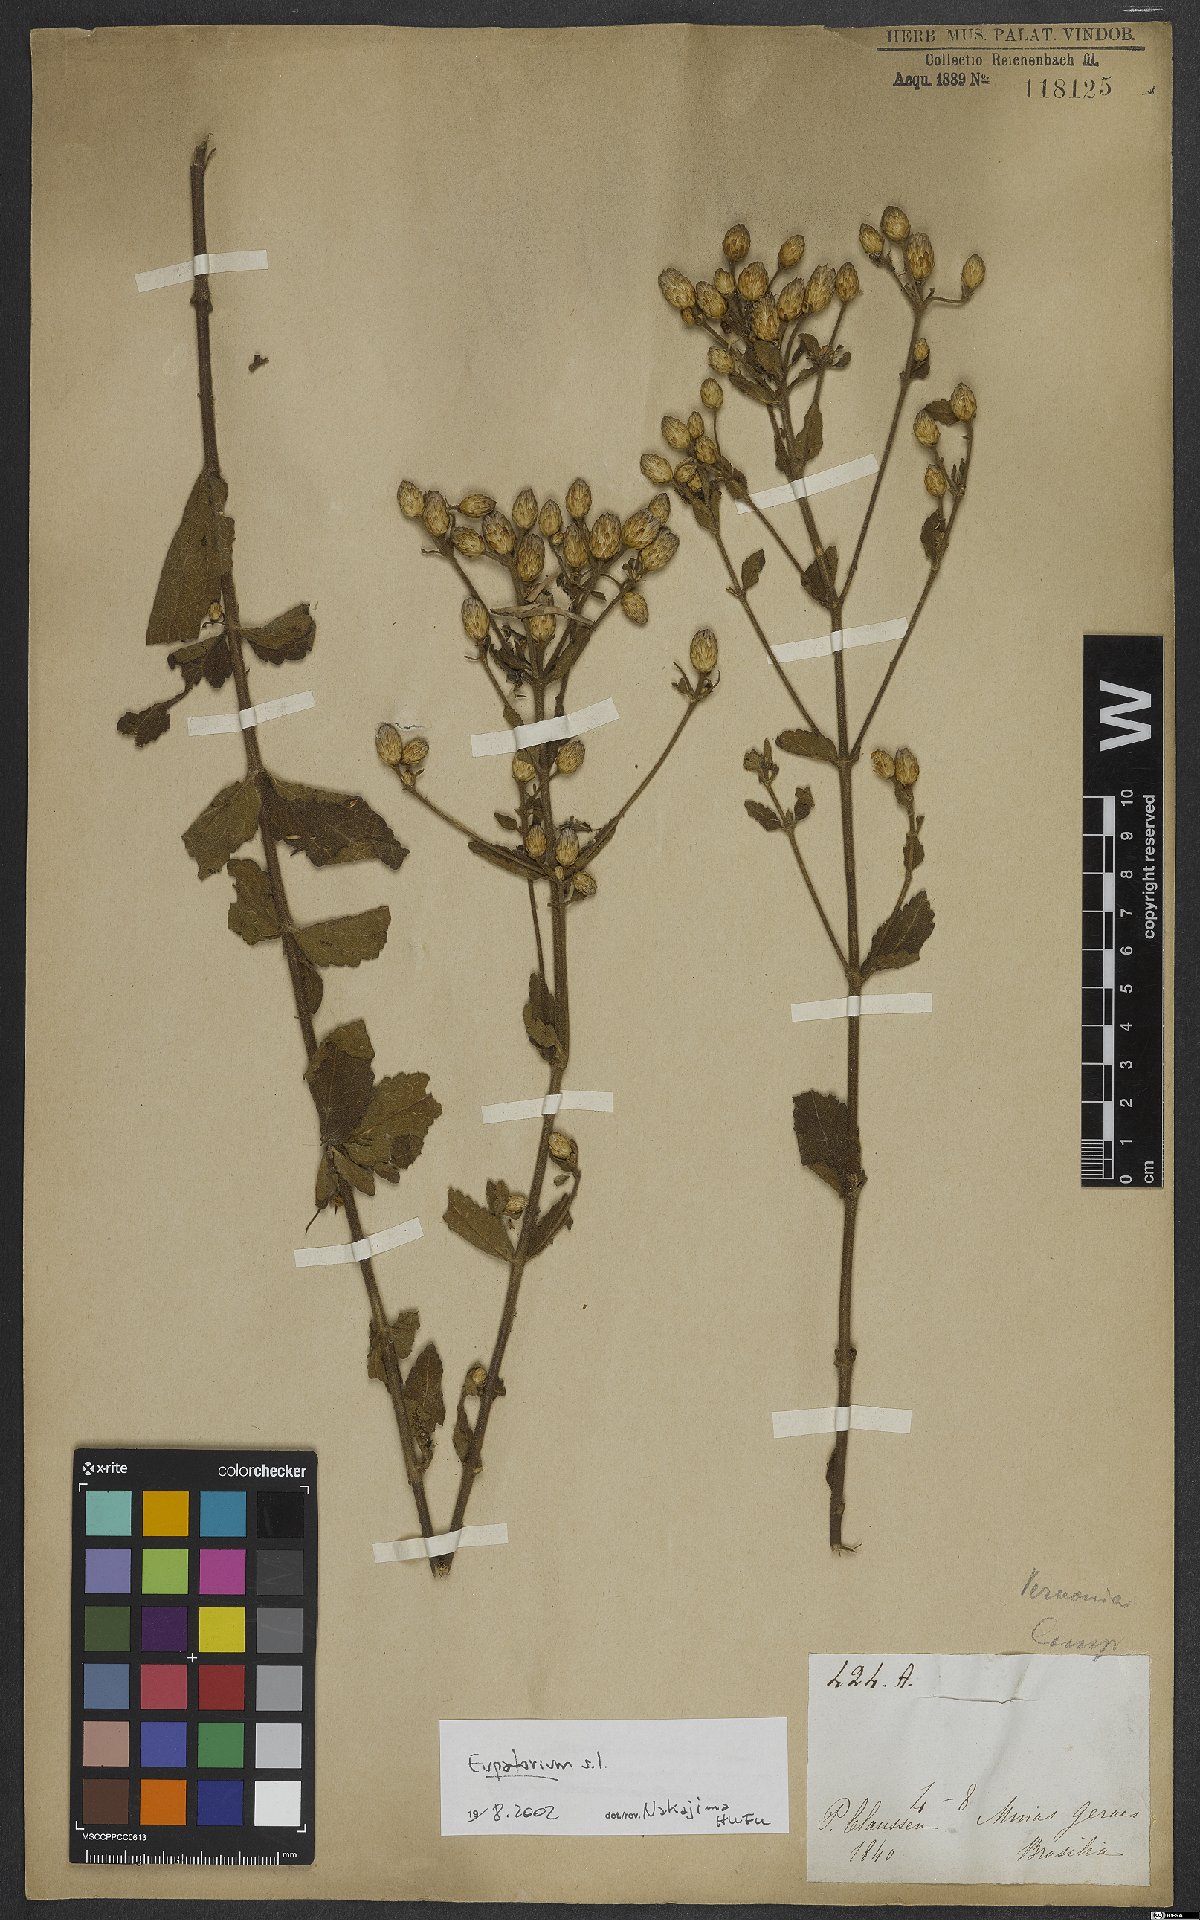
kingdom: Plantae
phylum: Tracheophyta
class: Magnoliopsida
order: Asterales
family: Asteraceae
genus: Eupatorium
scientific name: Eupatorium
